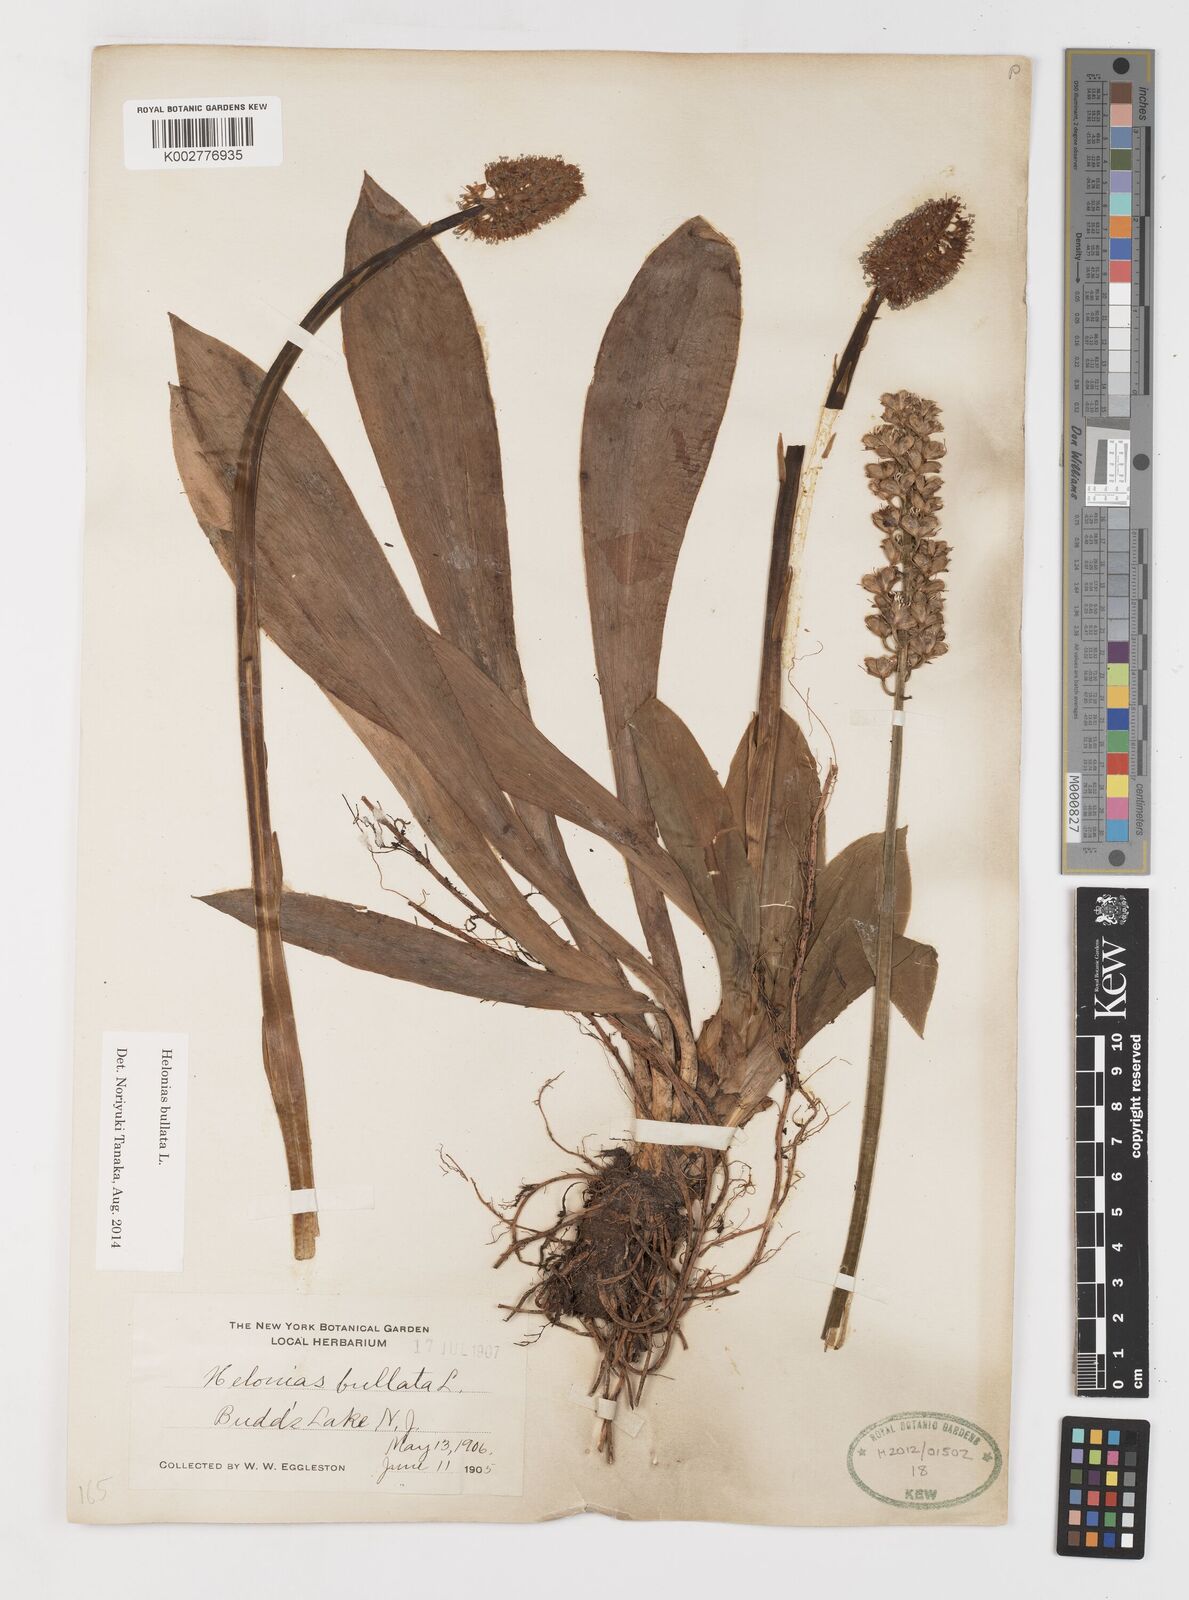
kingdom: Plantae
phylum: Tracheophyta
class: Liliopsida
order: Liliales
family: Melanthiaceae
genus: Helonias
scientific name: Helonias bullata
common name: Swamp-pink
